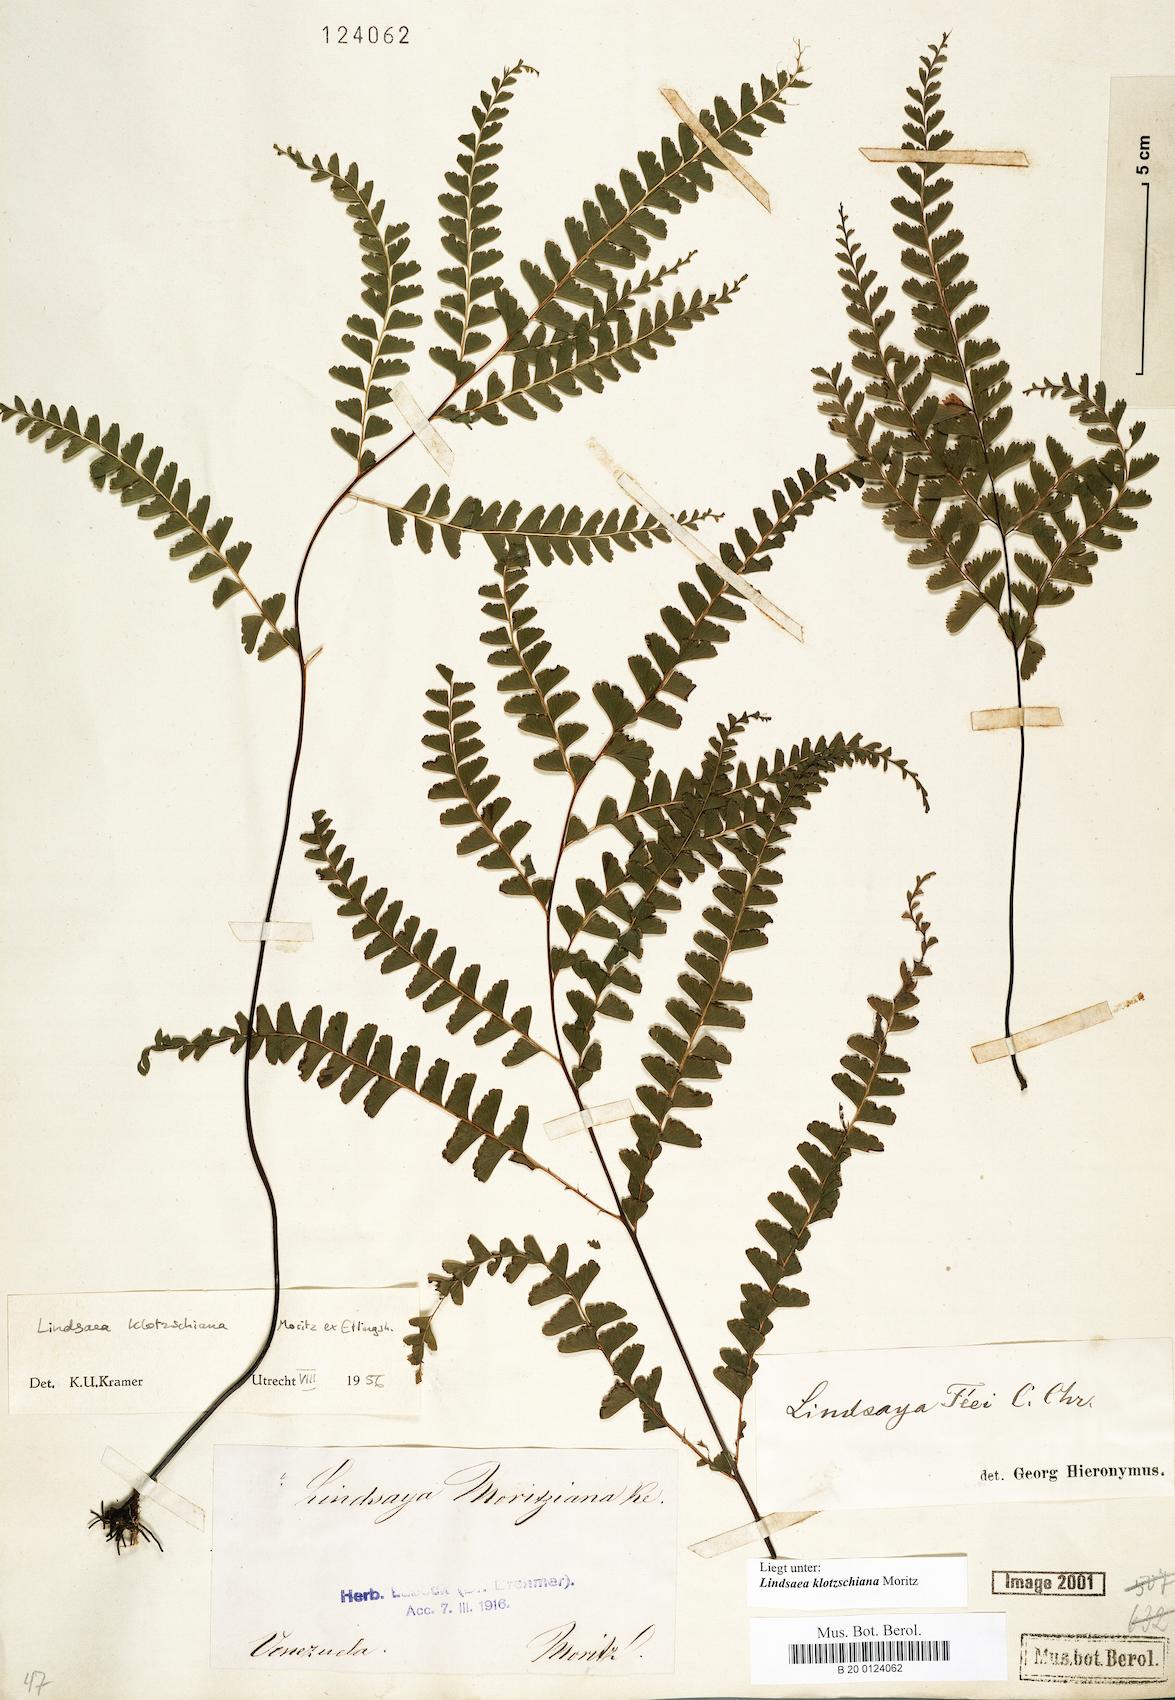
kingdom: Plantae
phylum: Tracheophyta
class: Polypodiopsida
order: Polypodiales
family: Lindsaeaceae
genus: Lindsaea
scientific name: Lindsaea klotzschiana
